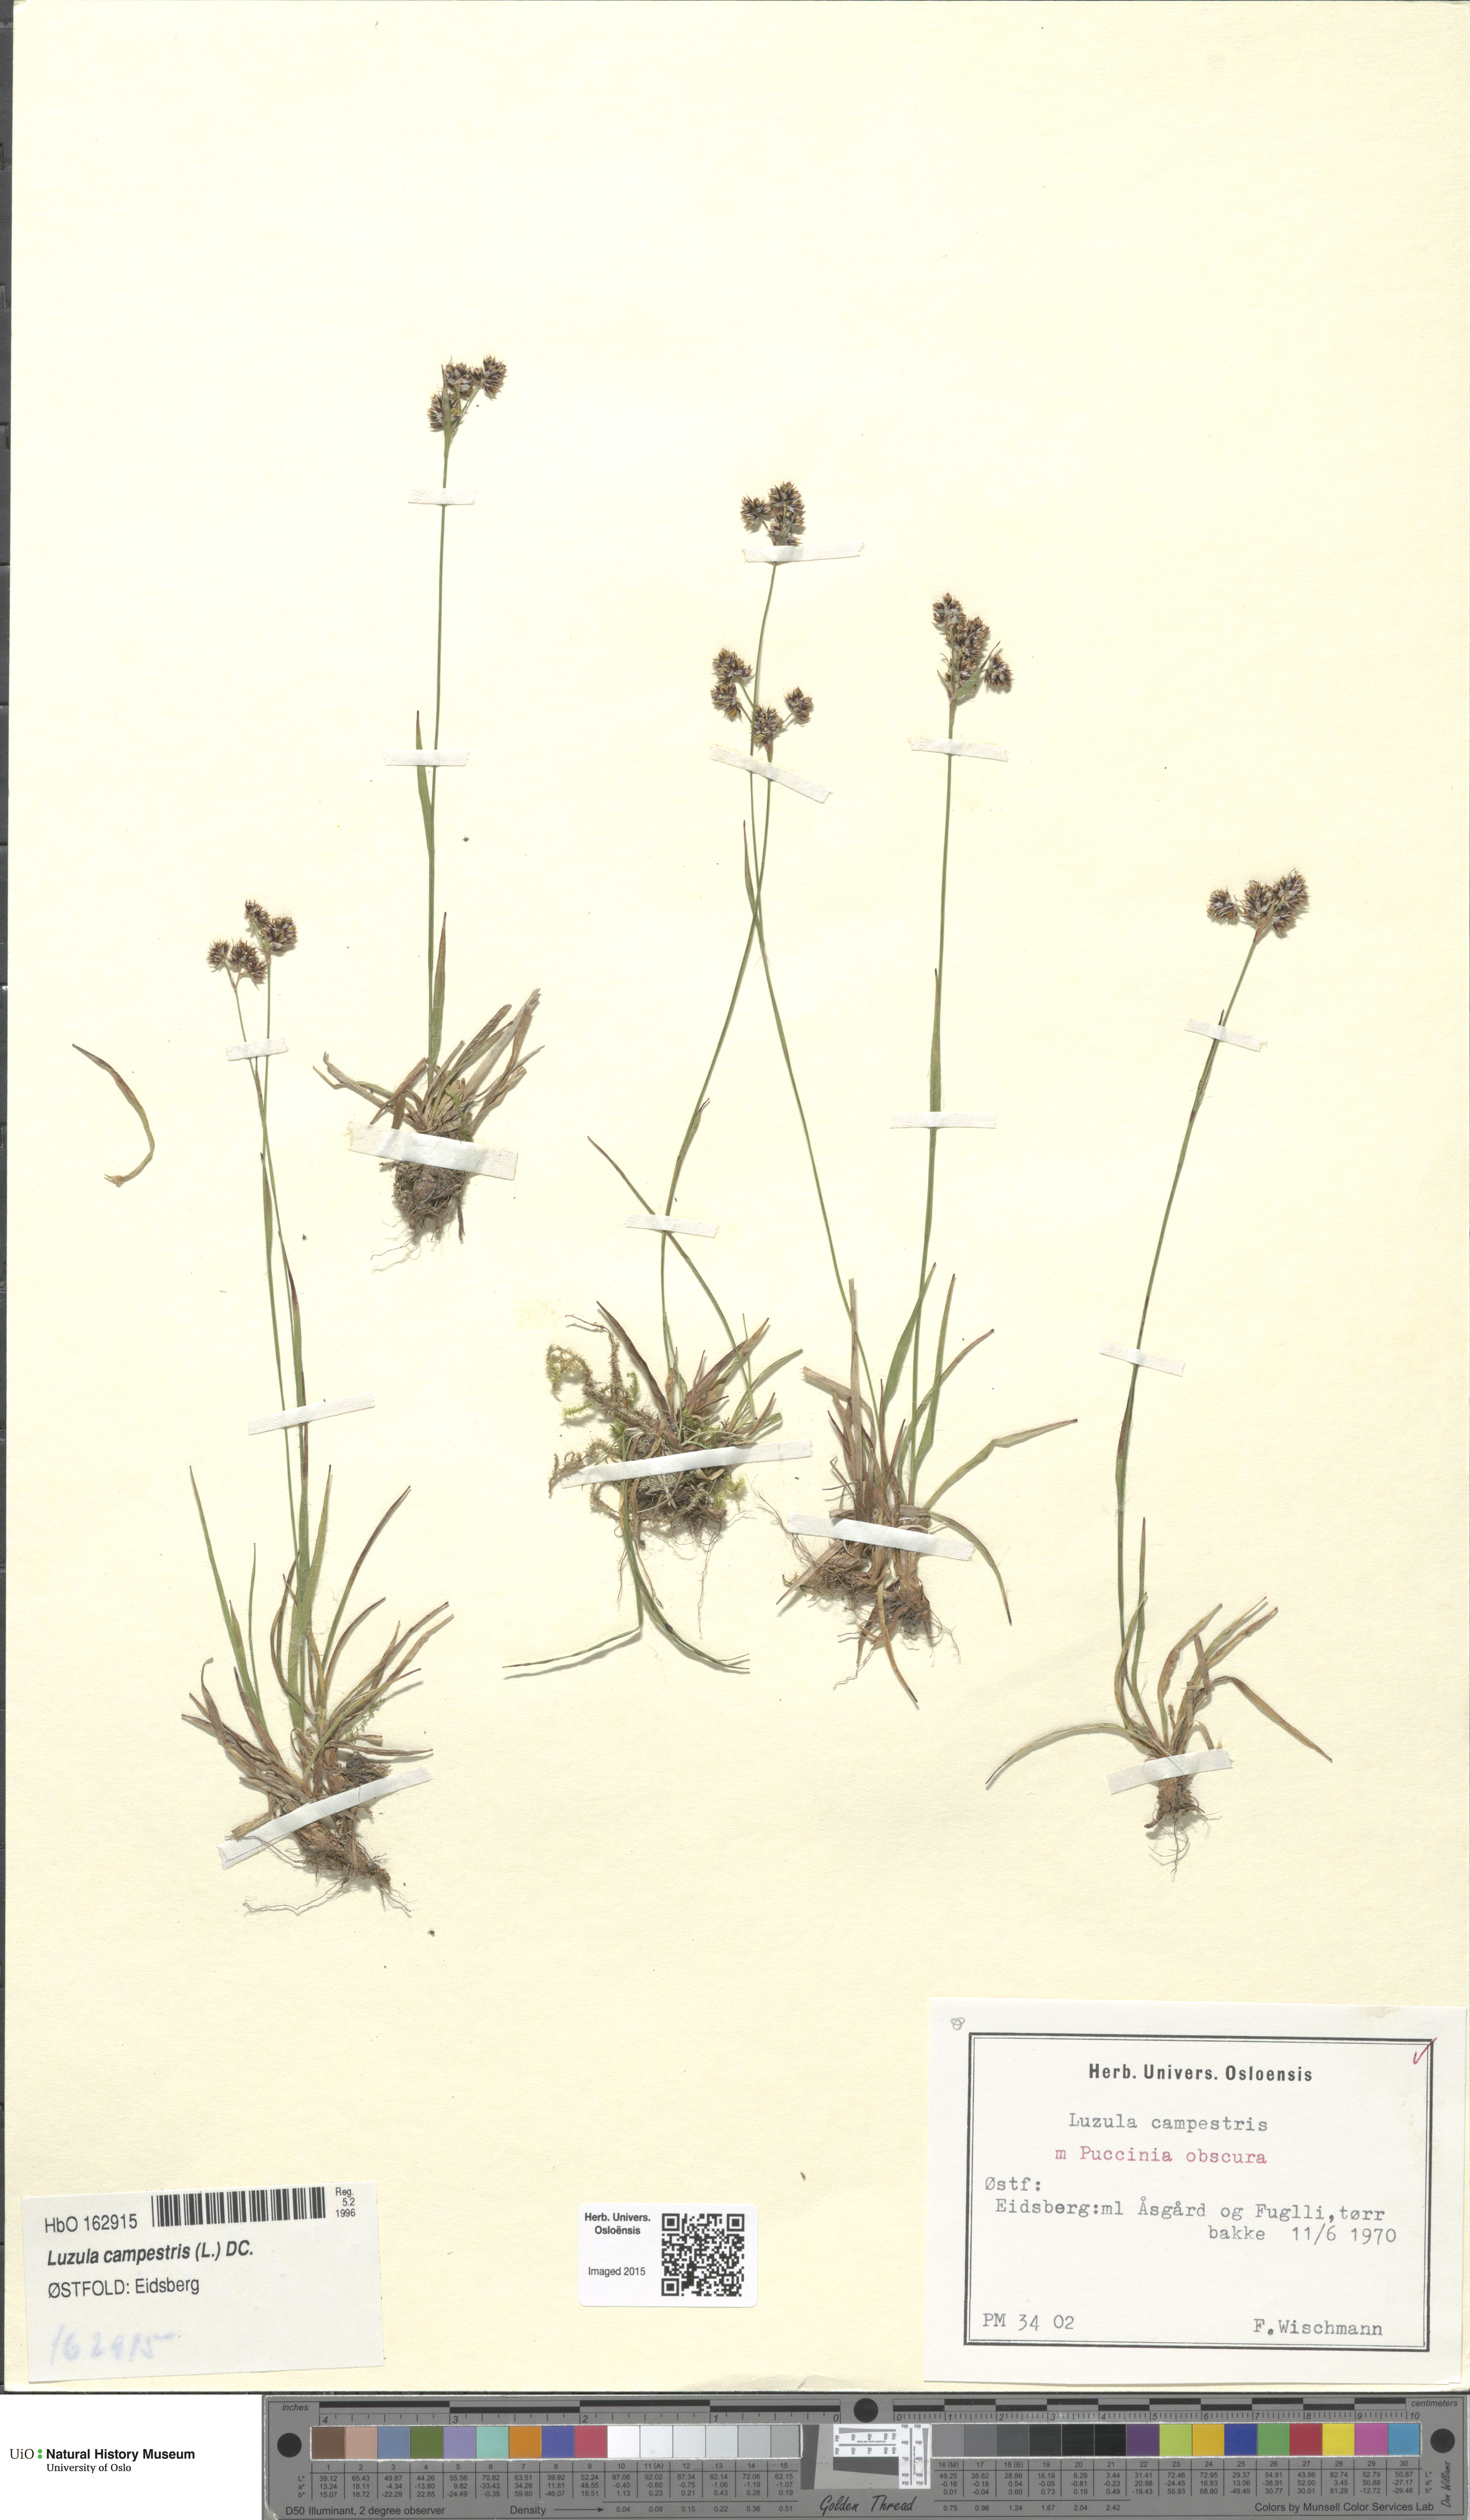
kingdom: Plantae
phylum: Tracheophyta
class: Liliopsida
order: Poales
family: Juncaceae
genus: Luzula
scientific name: Luzula campestris
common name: Field wood-rush
